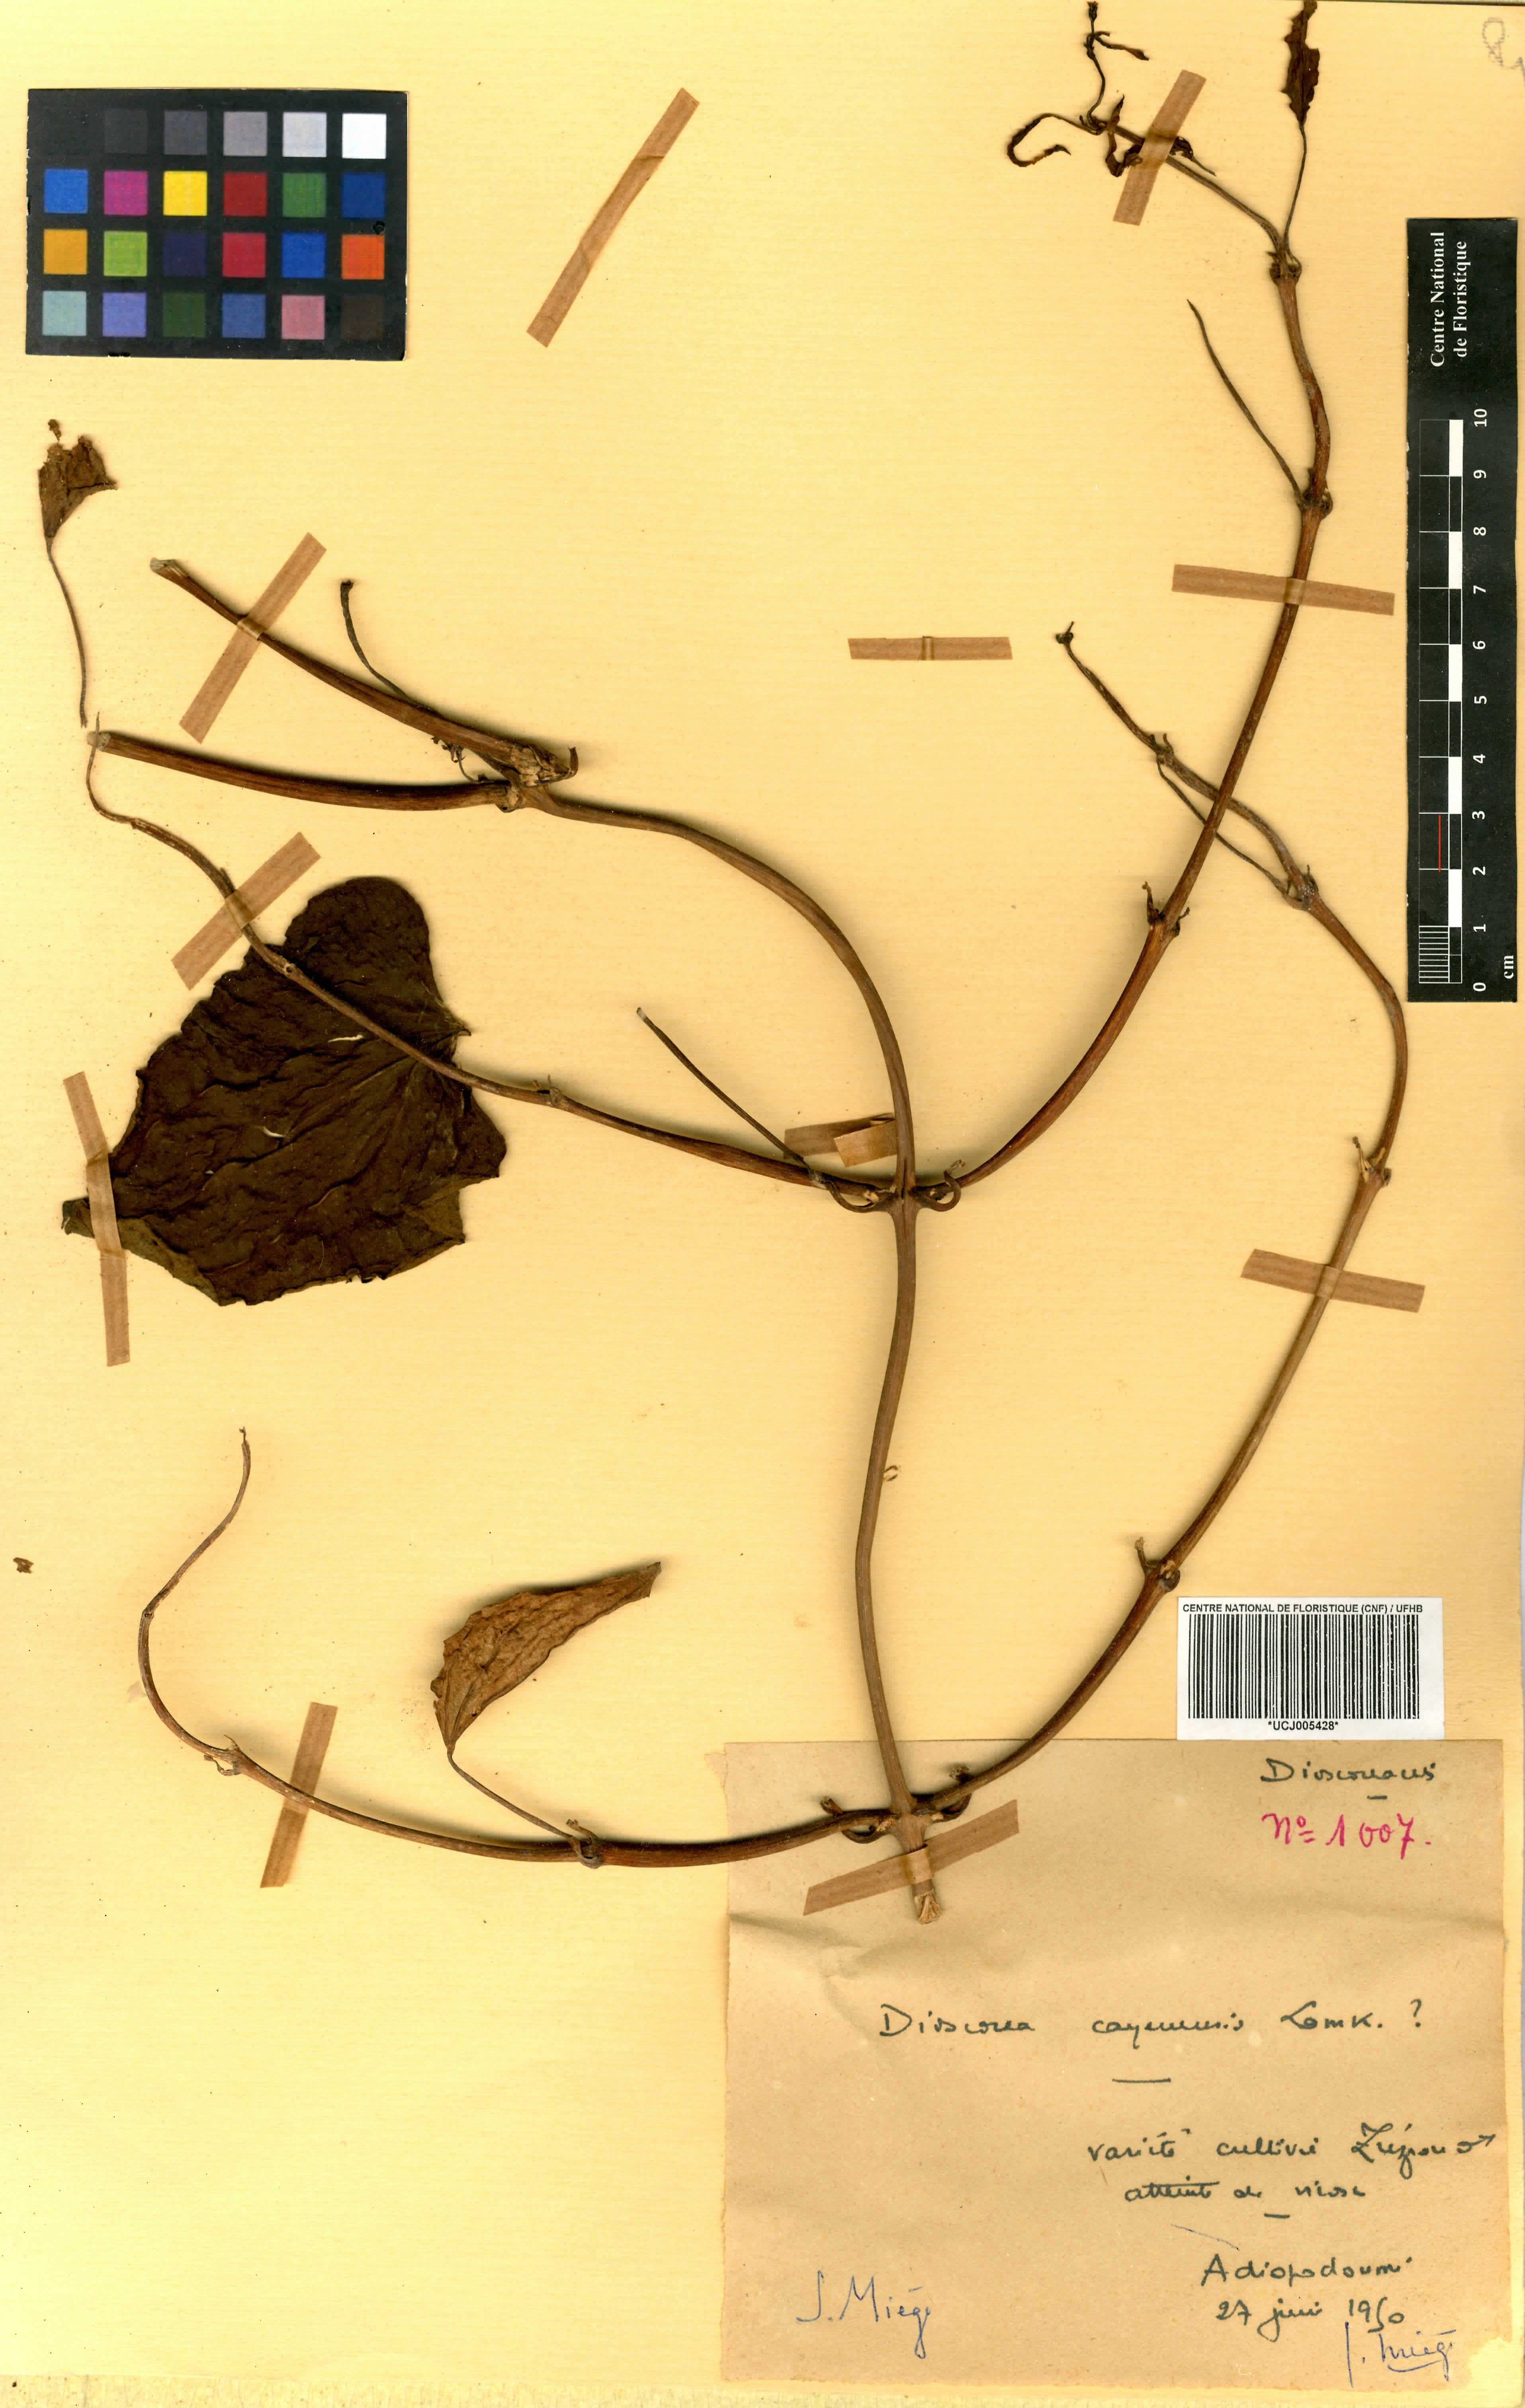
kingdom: Plantae
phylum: Tracheophyta
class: Liliopsida
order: Dioscoreales
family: Dioscoreaceae
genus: Dioscorea
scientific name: Dioscorea cayenensis
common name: Attoto yam
